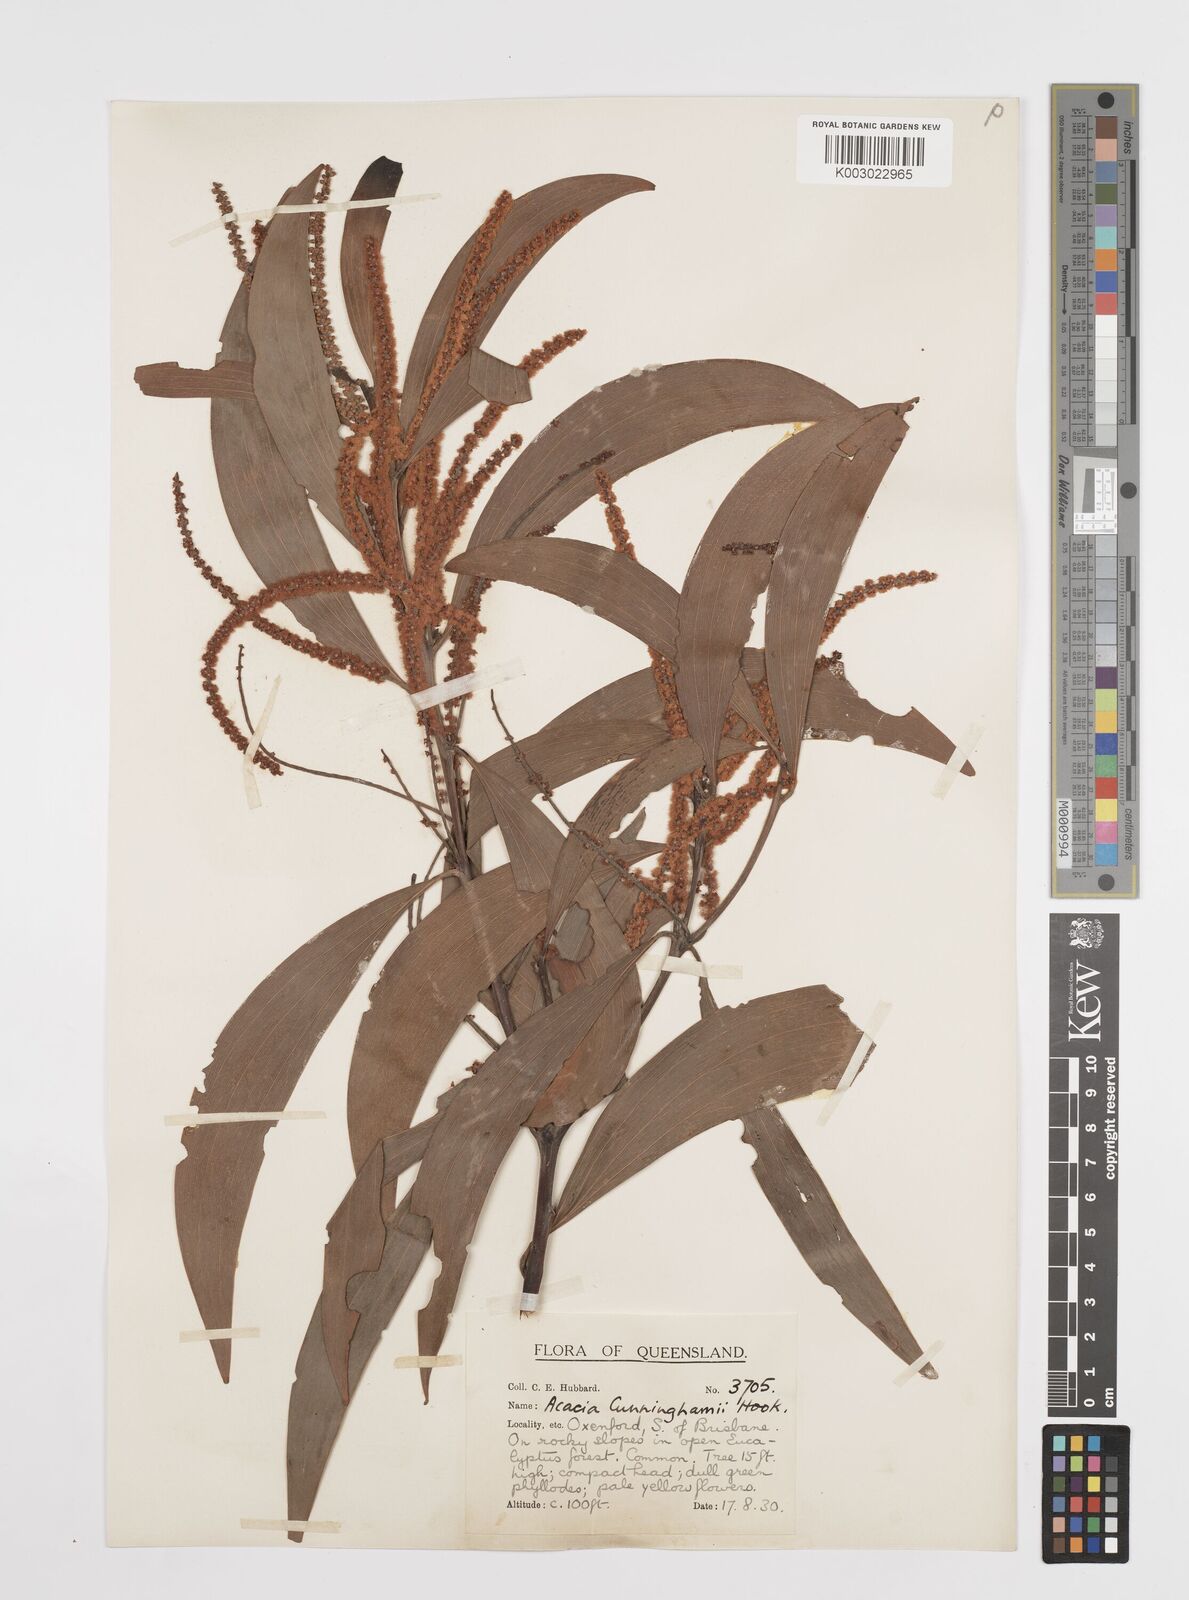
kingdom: Plantae
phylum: Tracheophyta
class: Magnoliopsida
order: Fabales
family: Fabaceae
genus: Acacia
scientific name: Acacia longispicata
